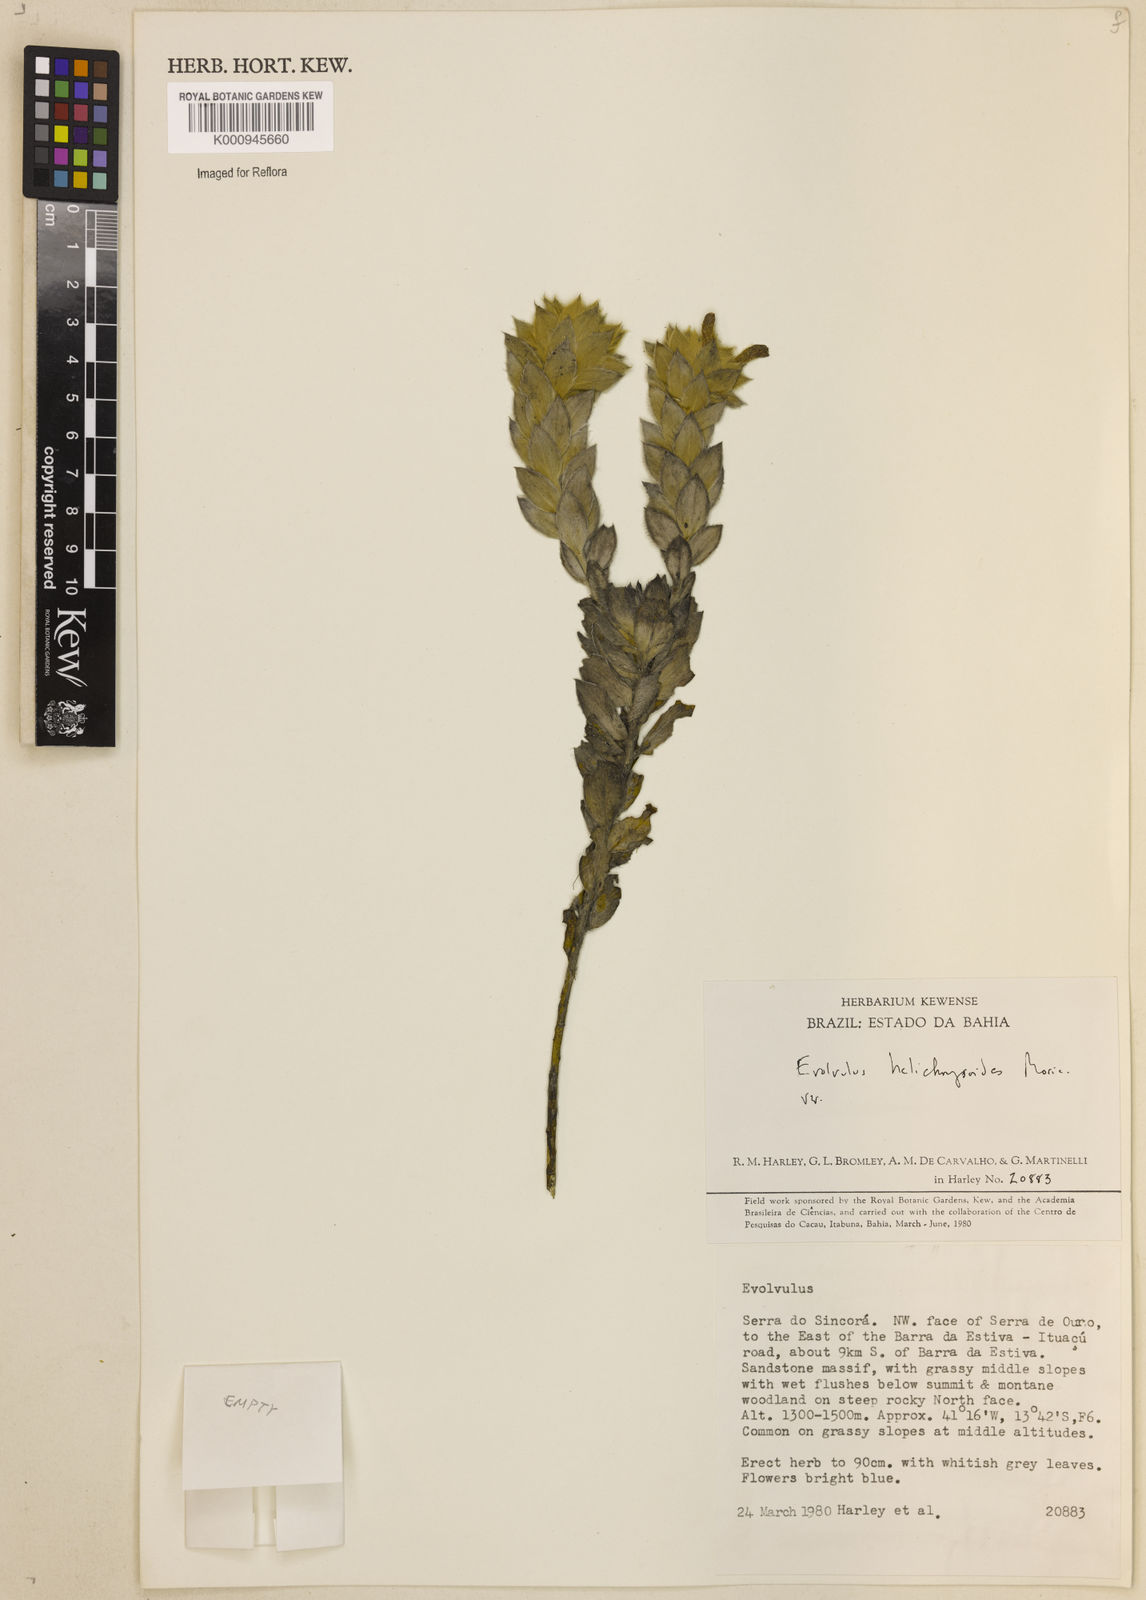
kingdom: Plantae
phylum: Tracheophyta
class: Magnoliopsida
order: Solanales
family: Convolvulaceae
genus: Evolvulus
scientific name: Evolvulus helichrysoides
